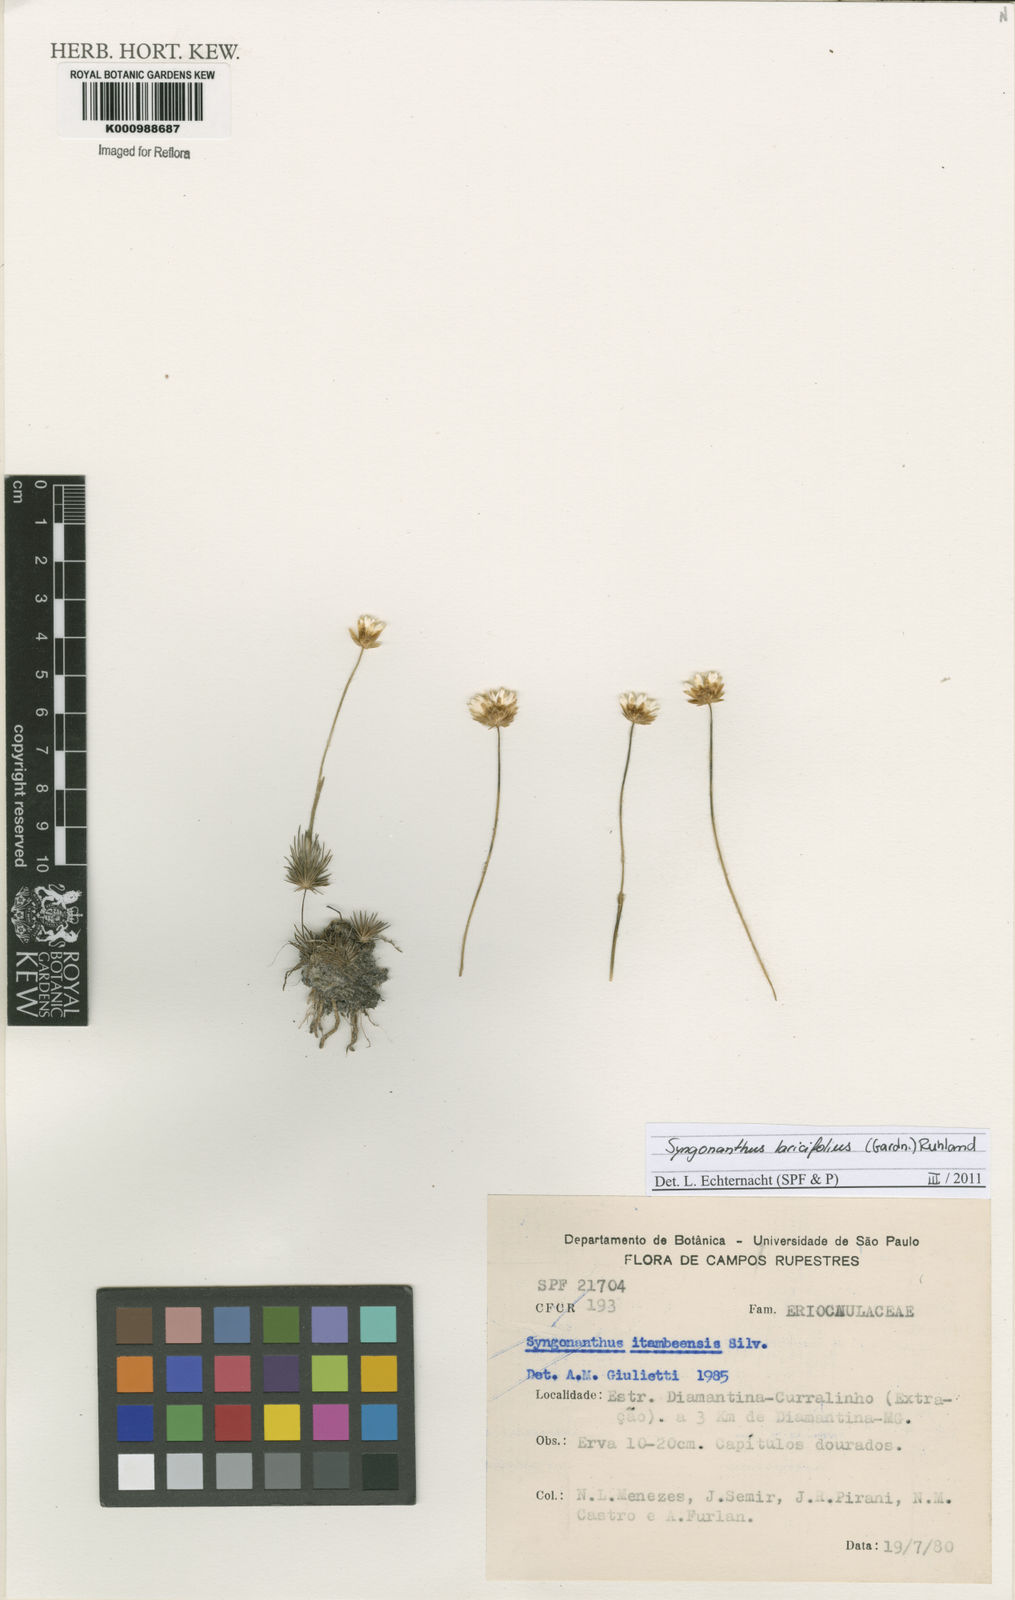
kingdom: Plantae
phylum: Tracheophyta
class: Liliopsida
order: Poales
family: Eriocaulaceae
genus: Syngonanthus
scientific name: Syngonanthus laricifolius
